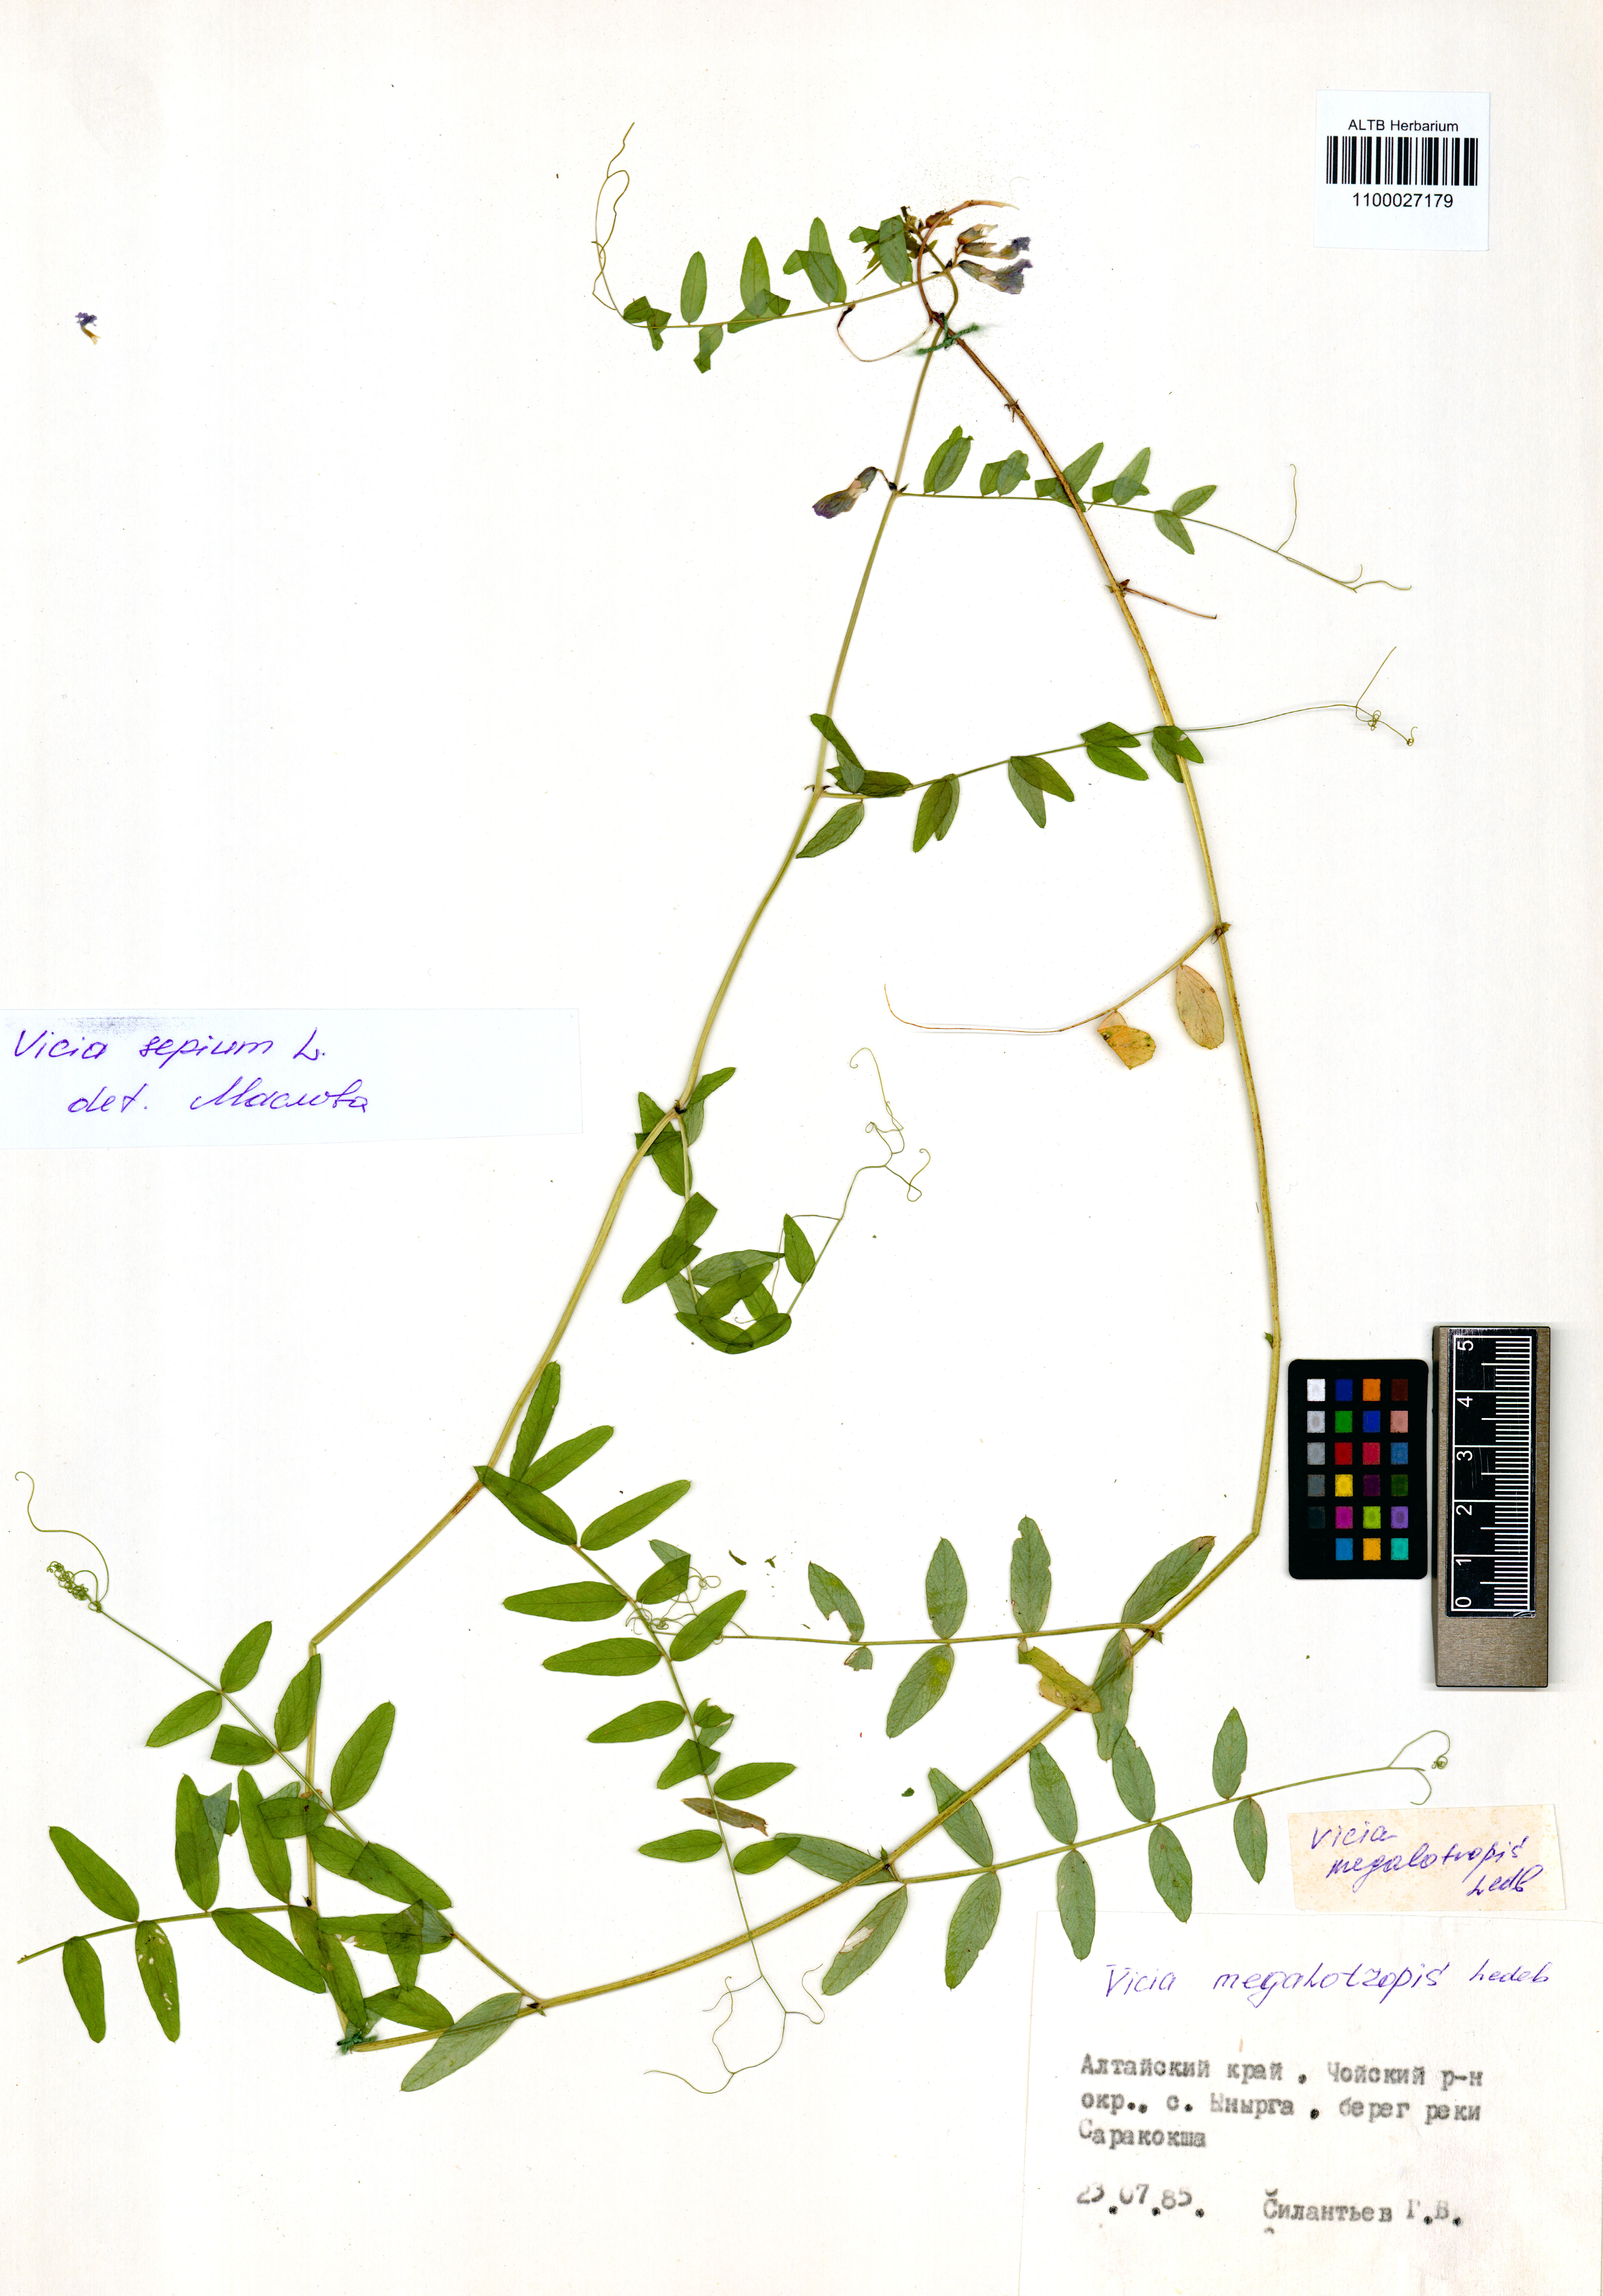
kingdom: Plantae
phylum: Tracheophyta
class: Magnoliopsida
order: Fabales
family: Fabaceae
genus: Vicia
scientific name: Vicia megalotropis
